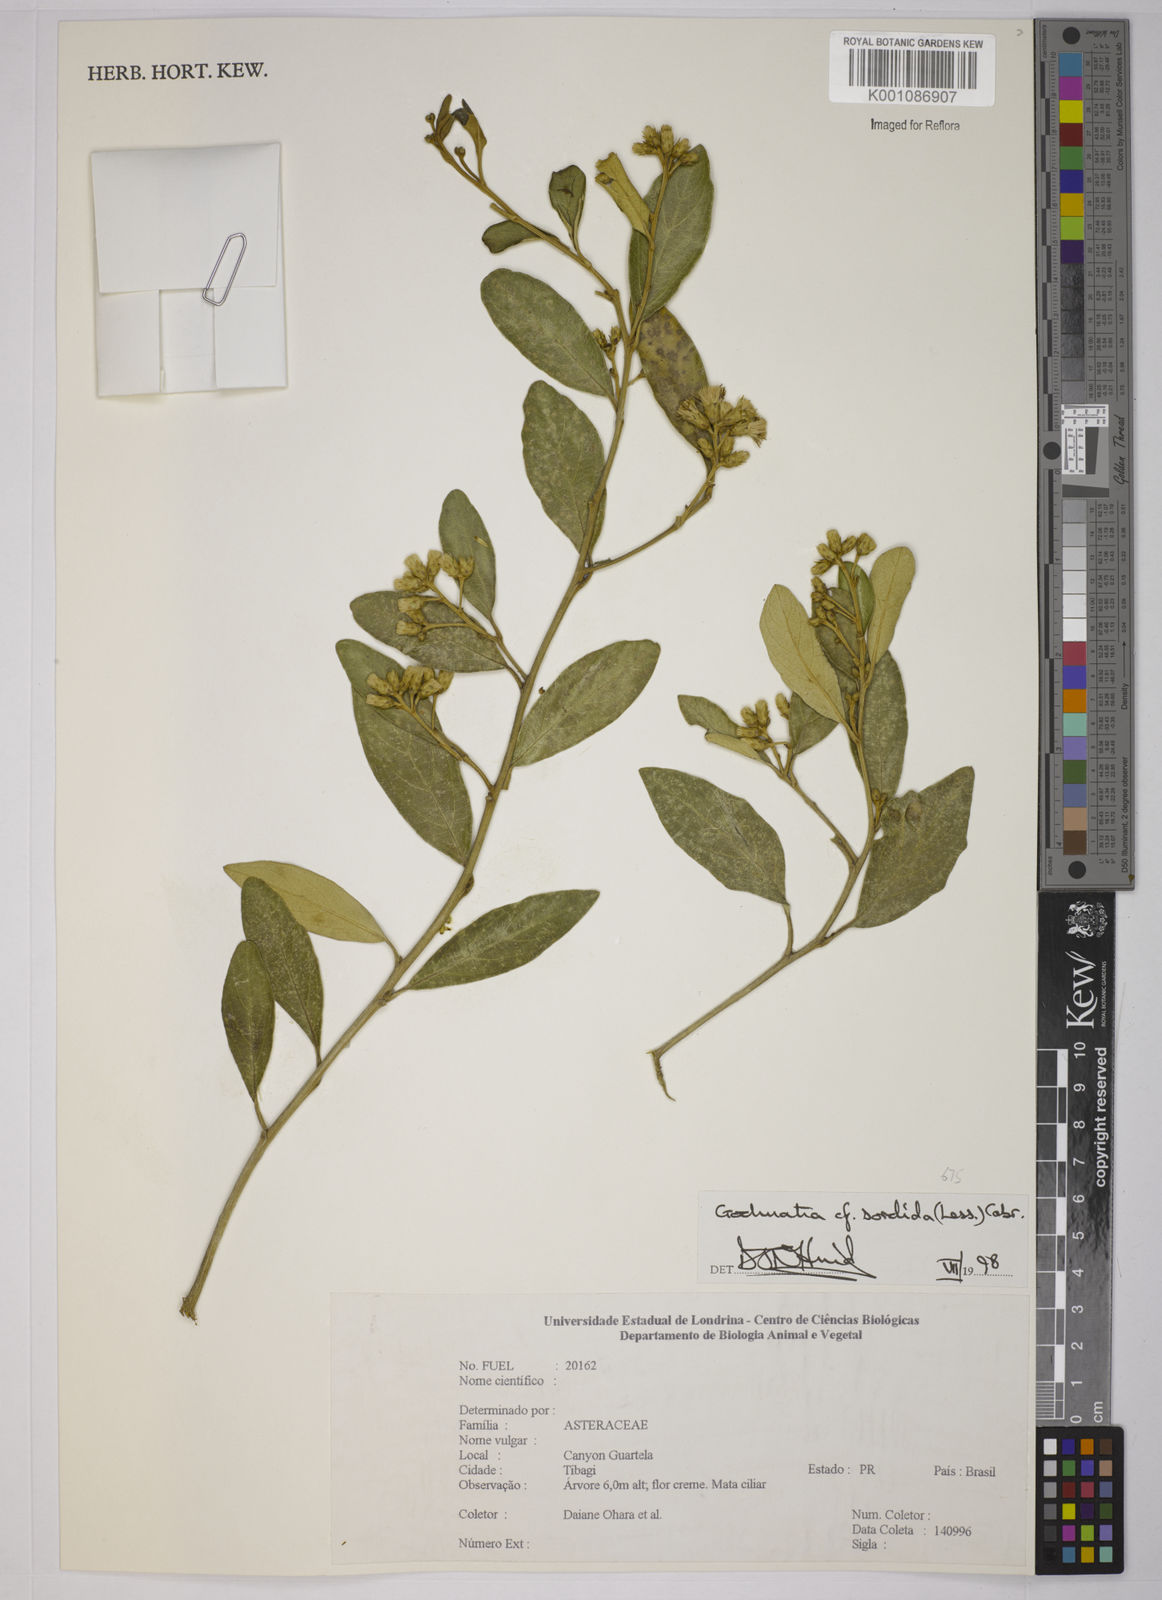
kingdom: Plantae
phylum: Tracheophyta
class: Magnoliopsida
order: Asterales
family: Asteraceae
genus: Moquiniastrum
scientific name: Moquiniastrum sordidum
